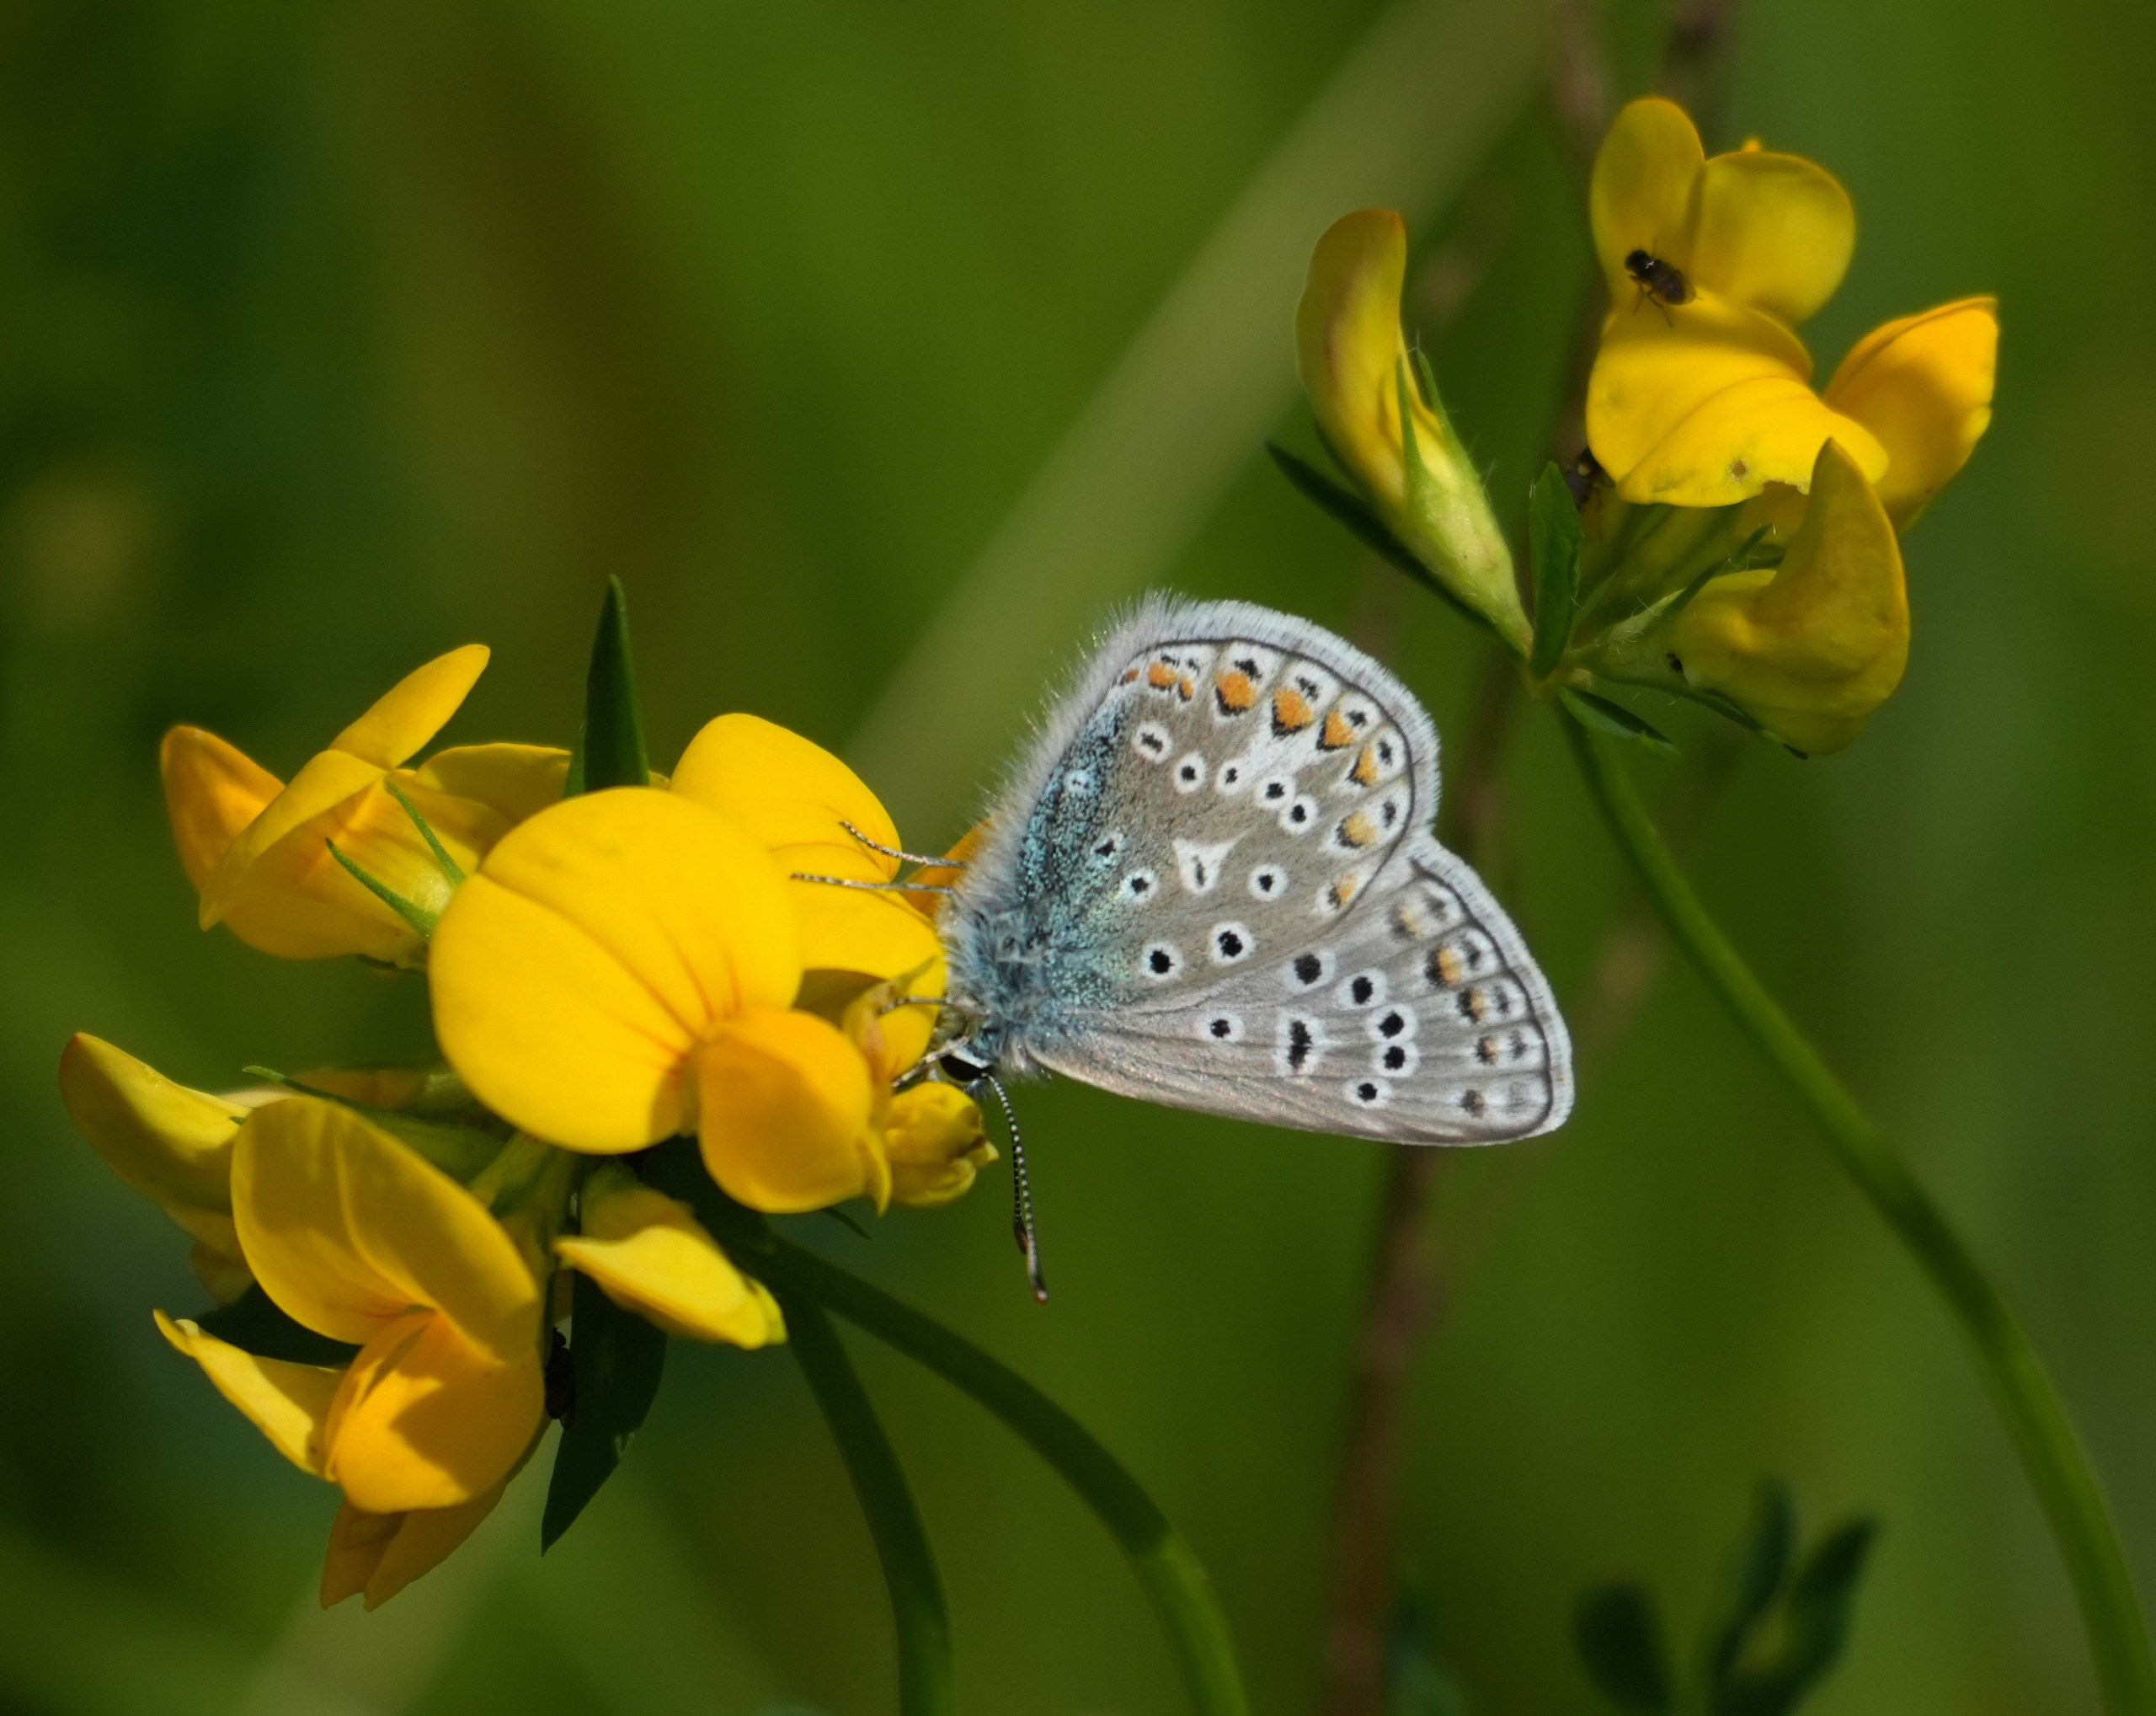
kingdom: Animalia
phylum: Arthropoda
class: Insecta
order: Lepidoptera
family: Lycaenidae
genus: Polyommatus
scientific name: Polyommatus icarus
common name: Almindelig blåfugl
